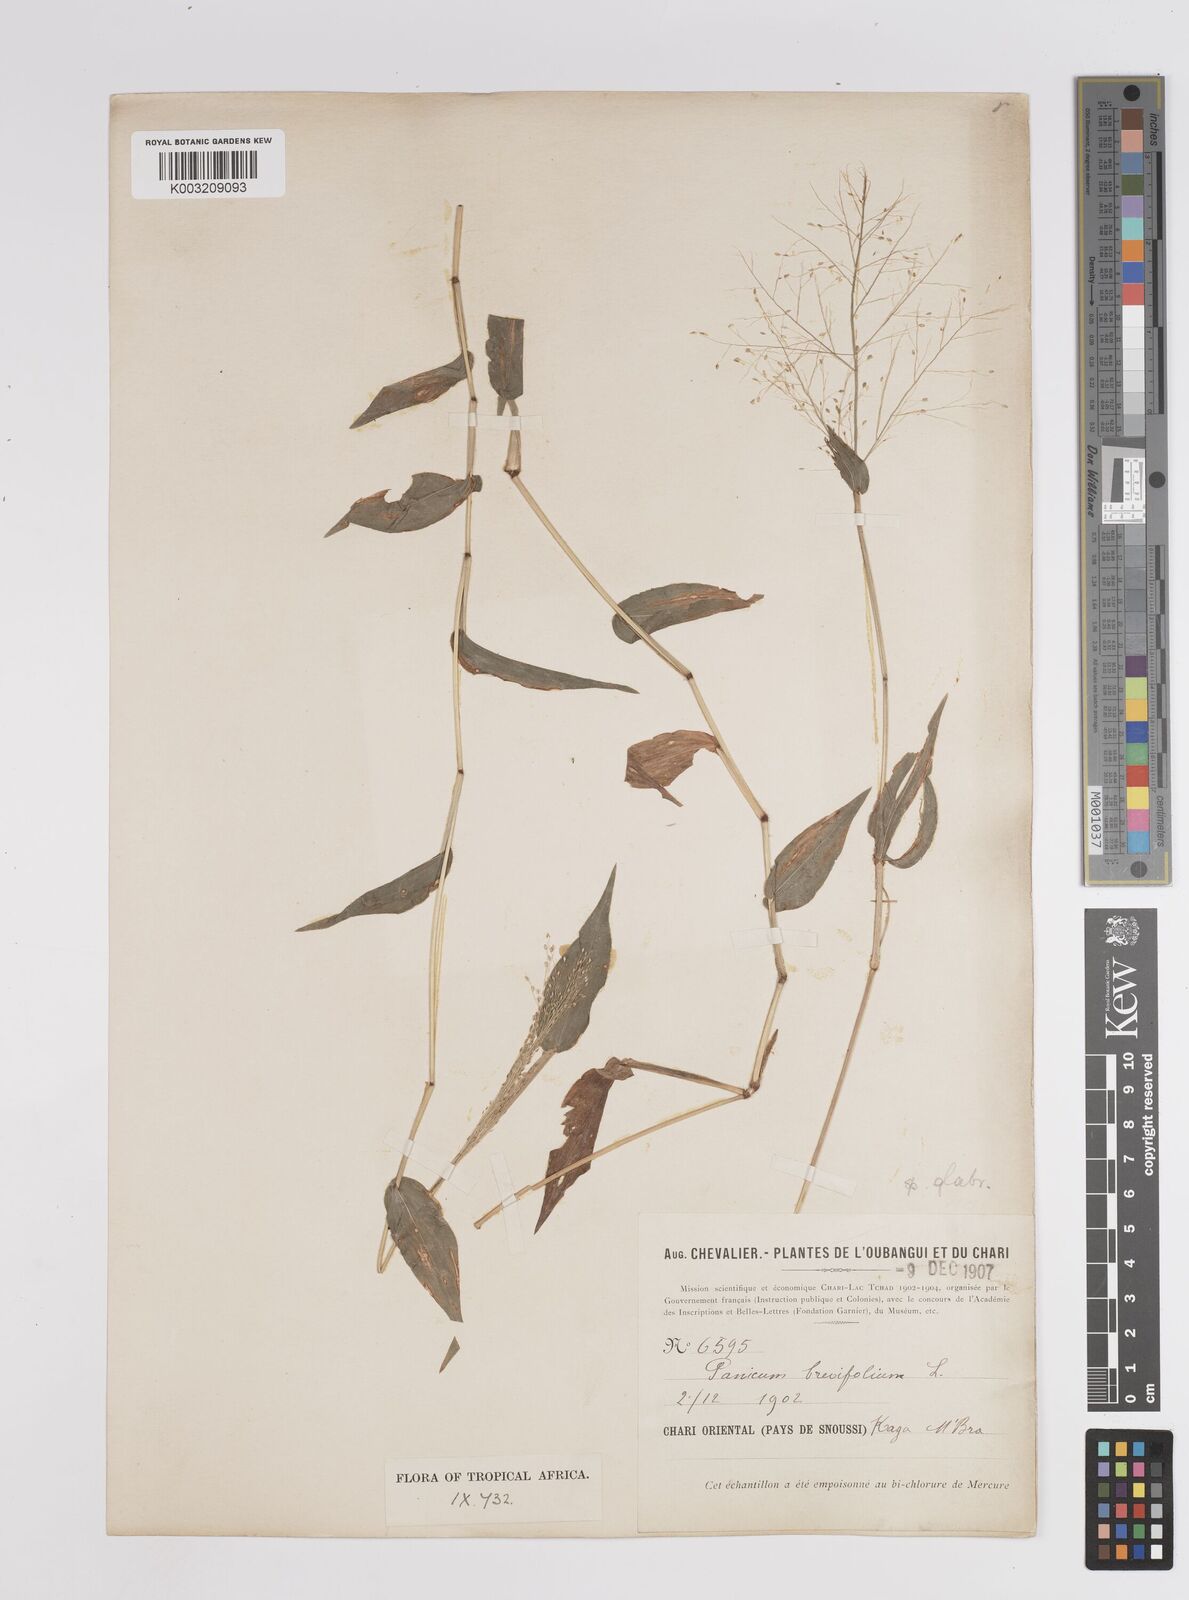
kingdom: Plantae
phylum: Tracheophyta
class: Liliopsida
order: Poales
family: Poaceae
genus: Panicum
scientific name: Panicum brevifolium
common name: Shortleaf panic grass
